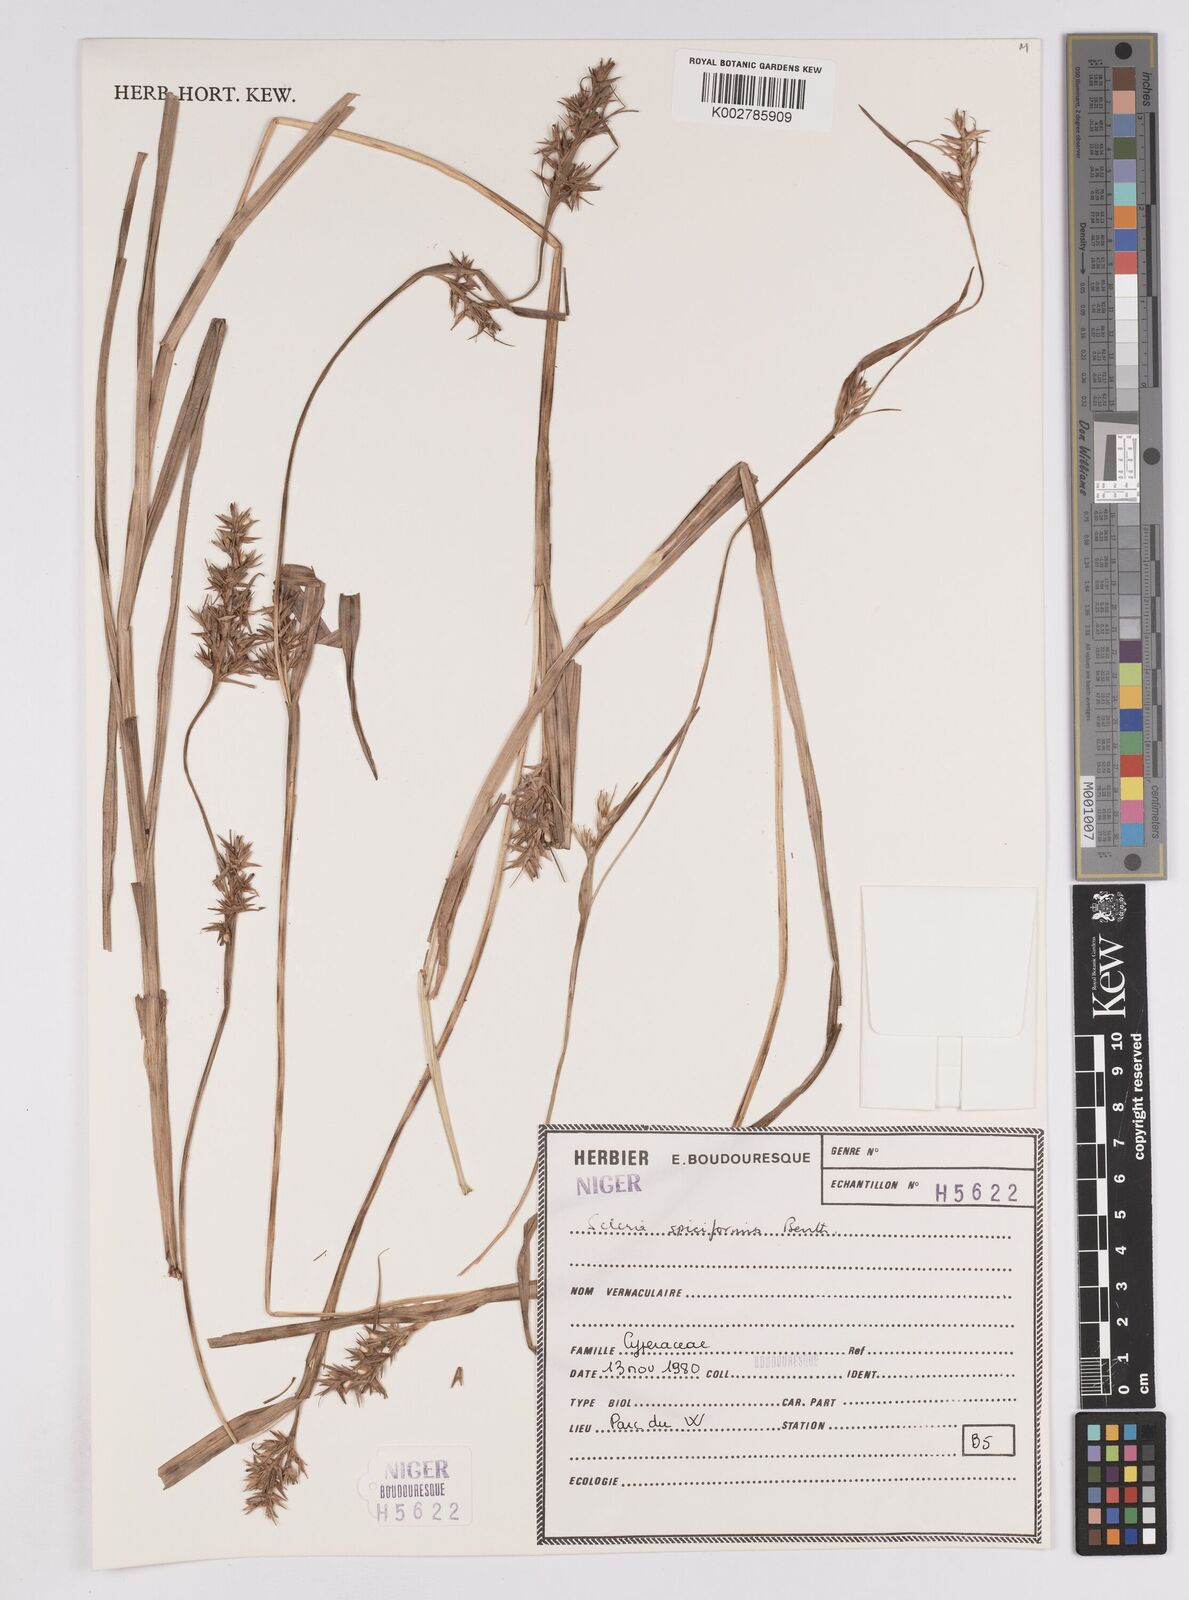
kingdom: Plantae
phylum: Tracheophyta
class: Liliopsida
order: Poales
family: Cyperaceae
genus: Scleria
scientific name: Scleria spiciformis
